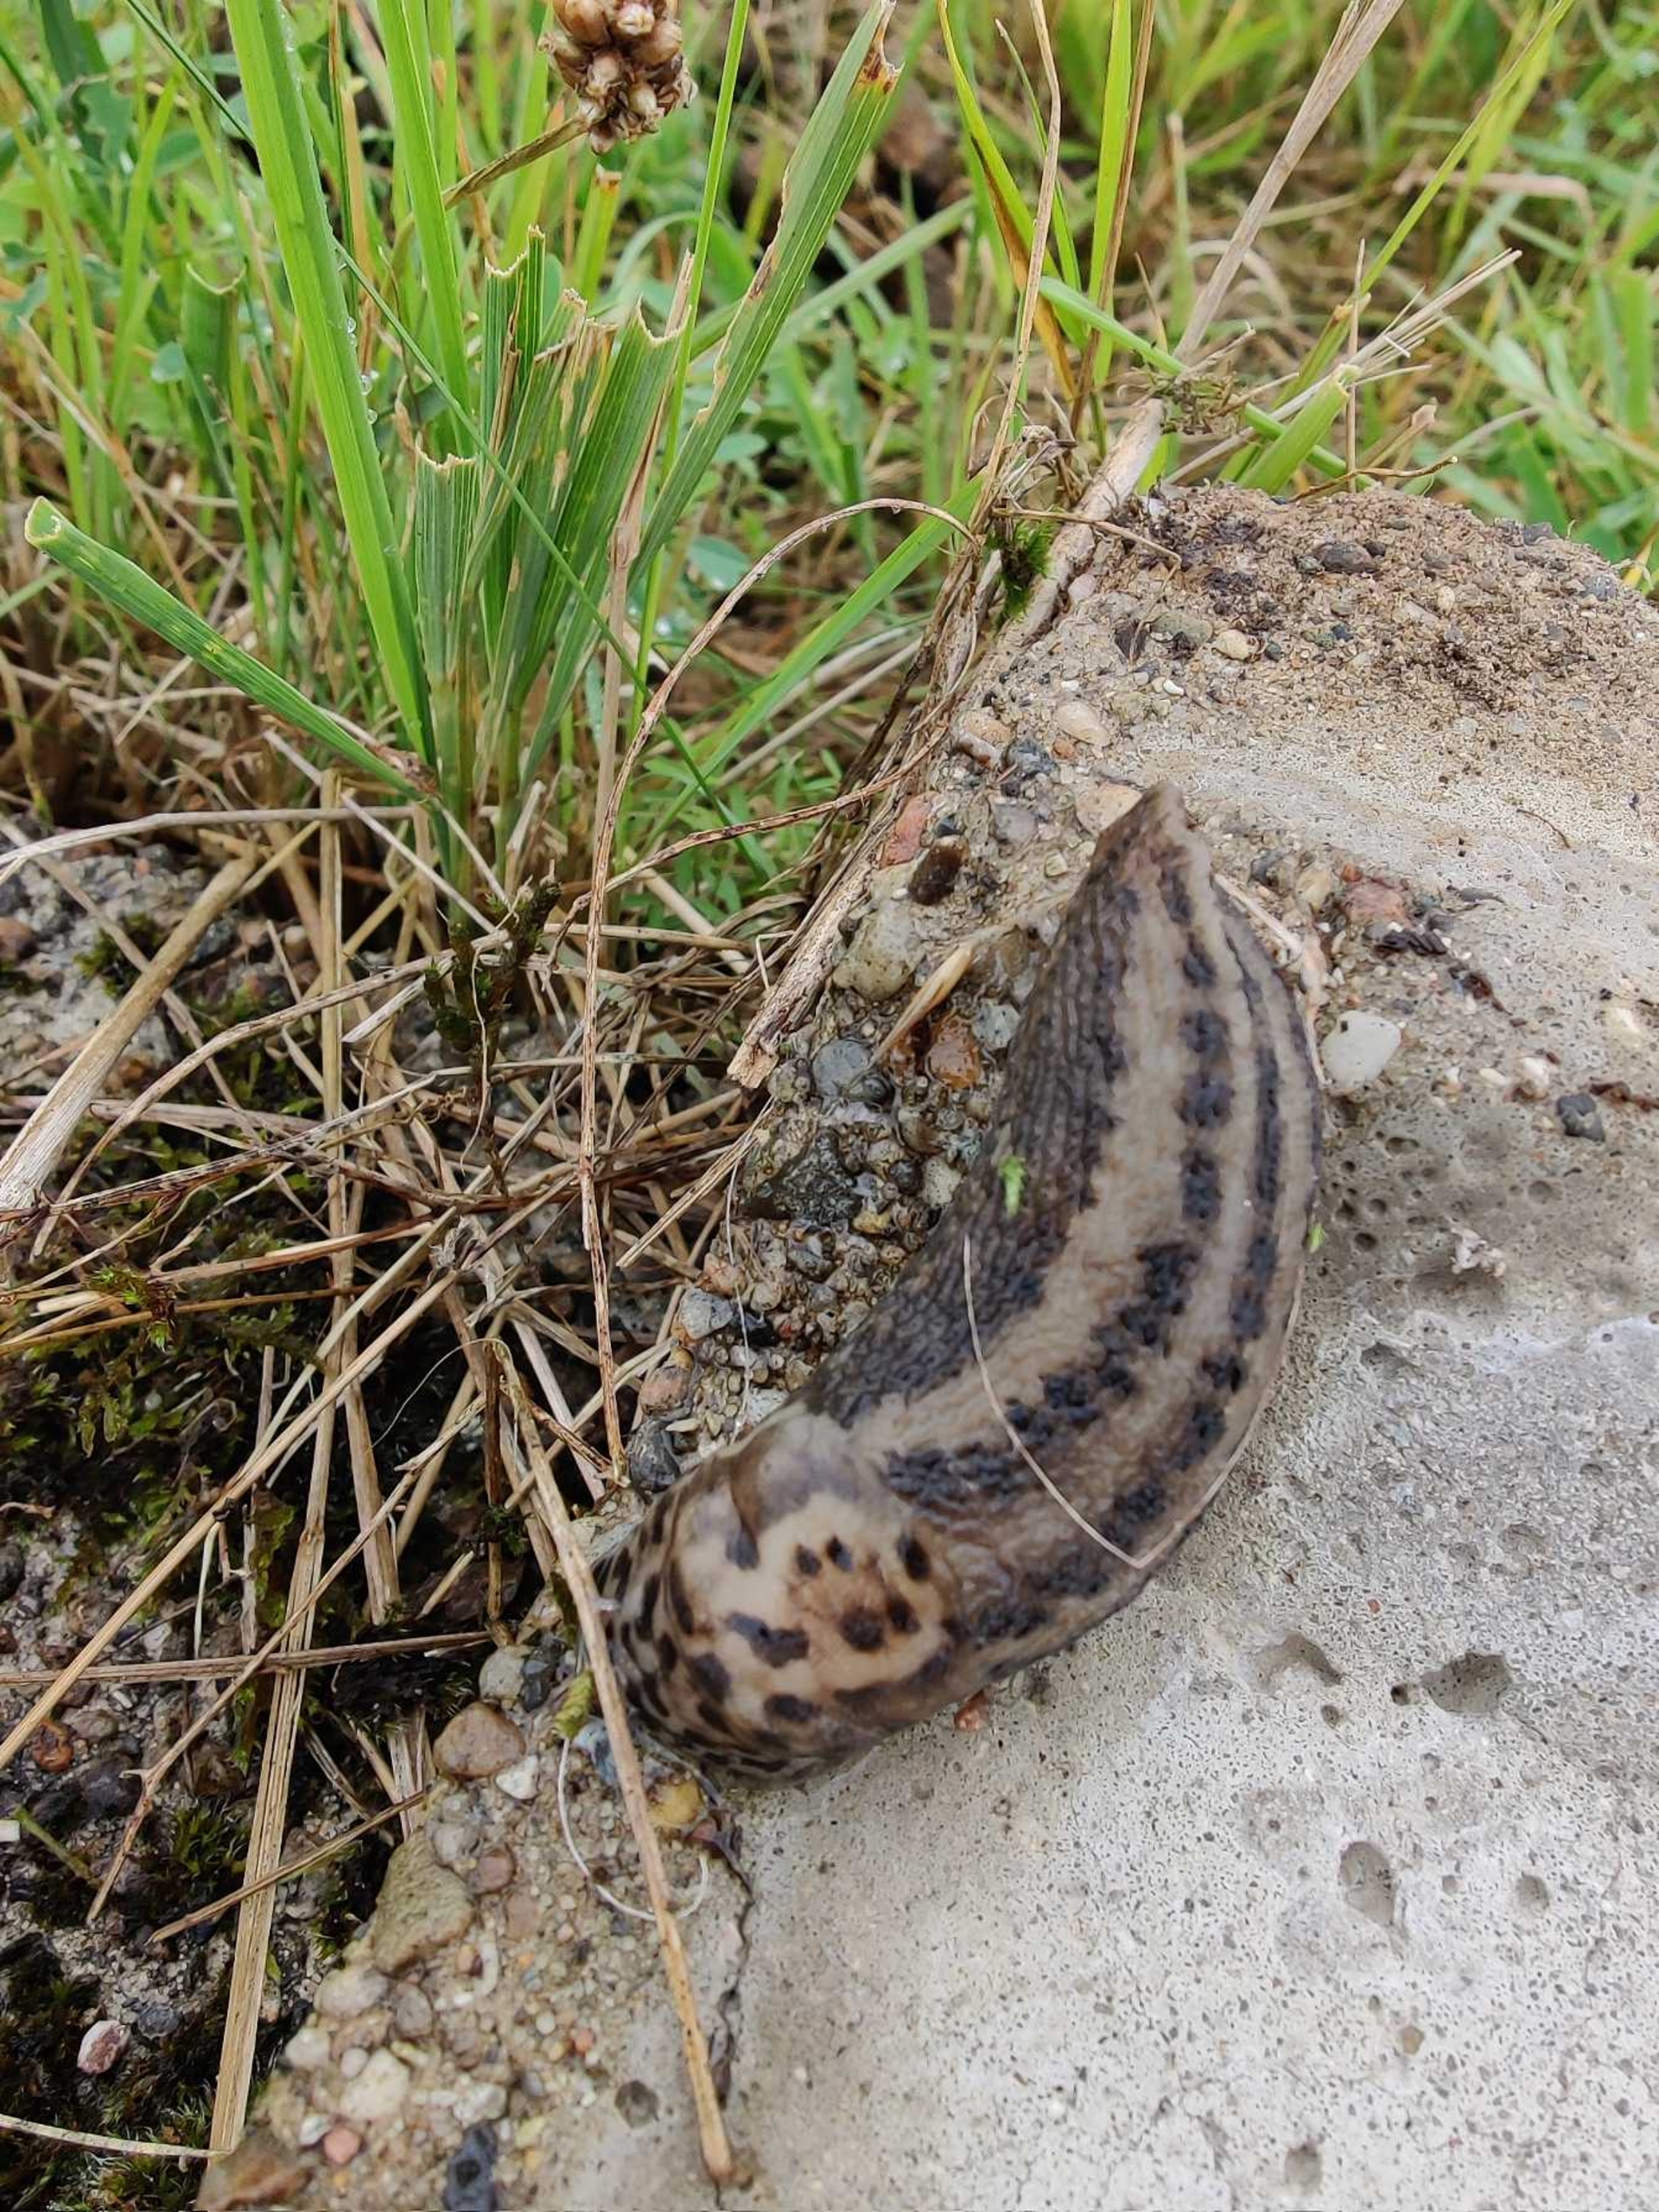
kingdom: Animalia
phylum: Mollusca
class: Gastropoda
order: Stylommatophora
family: Limacidae
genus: Limax
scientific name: Limax maximus
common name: Pantersnegl
